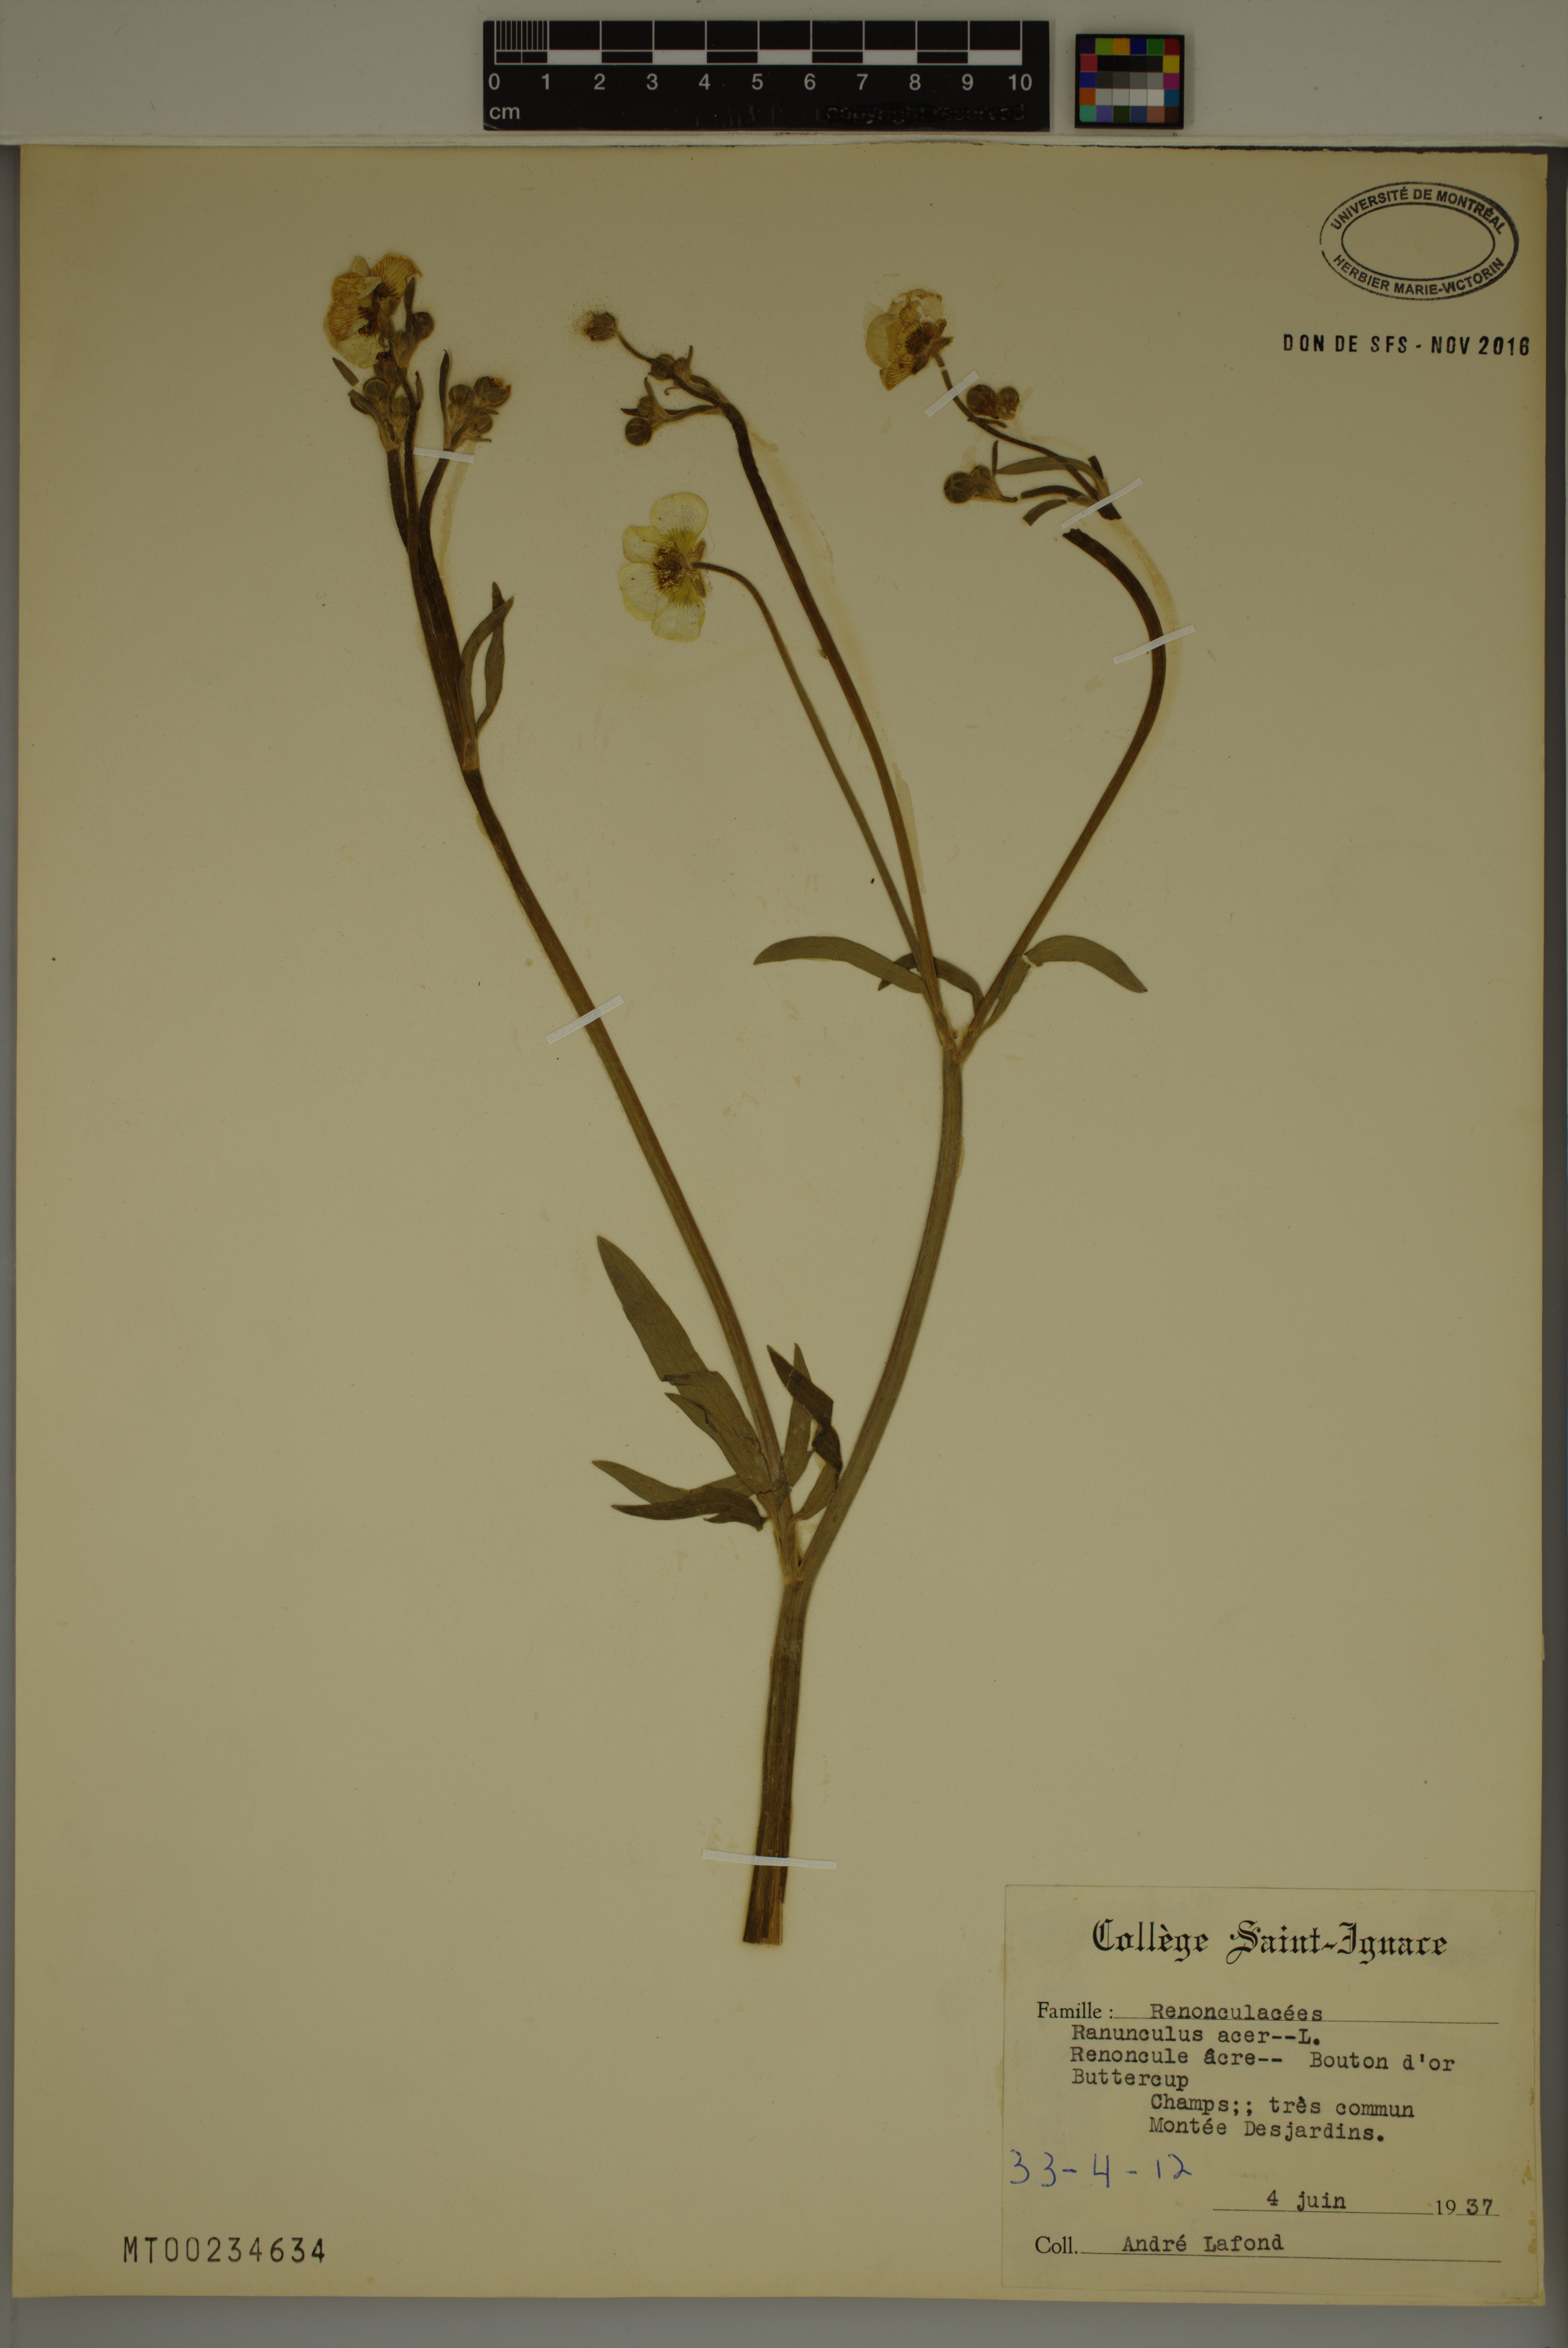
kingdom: Plantae
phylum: Tracheophyta
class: Magnoliopsida
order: Ranunculales
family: Ranunculaceae
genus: Ranunculus
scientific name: Ranunculus acris
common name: Meadow buttercup
